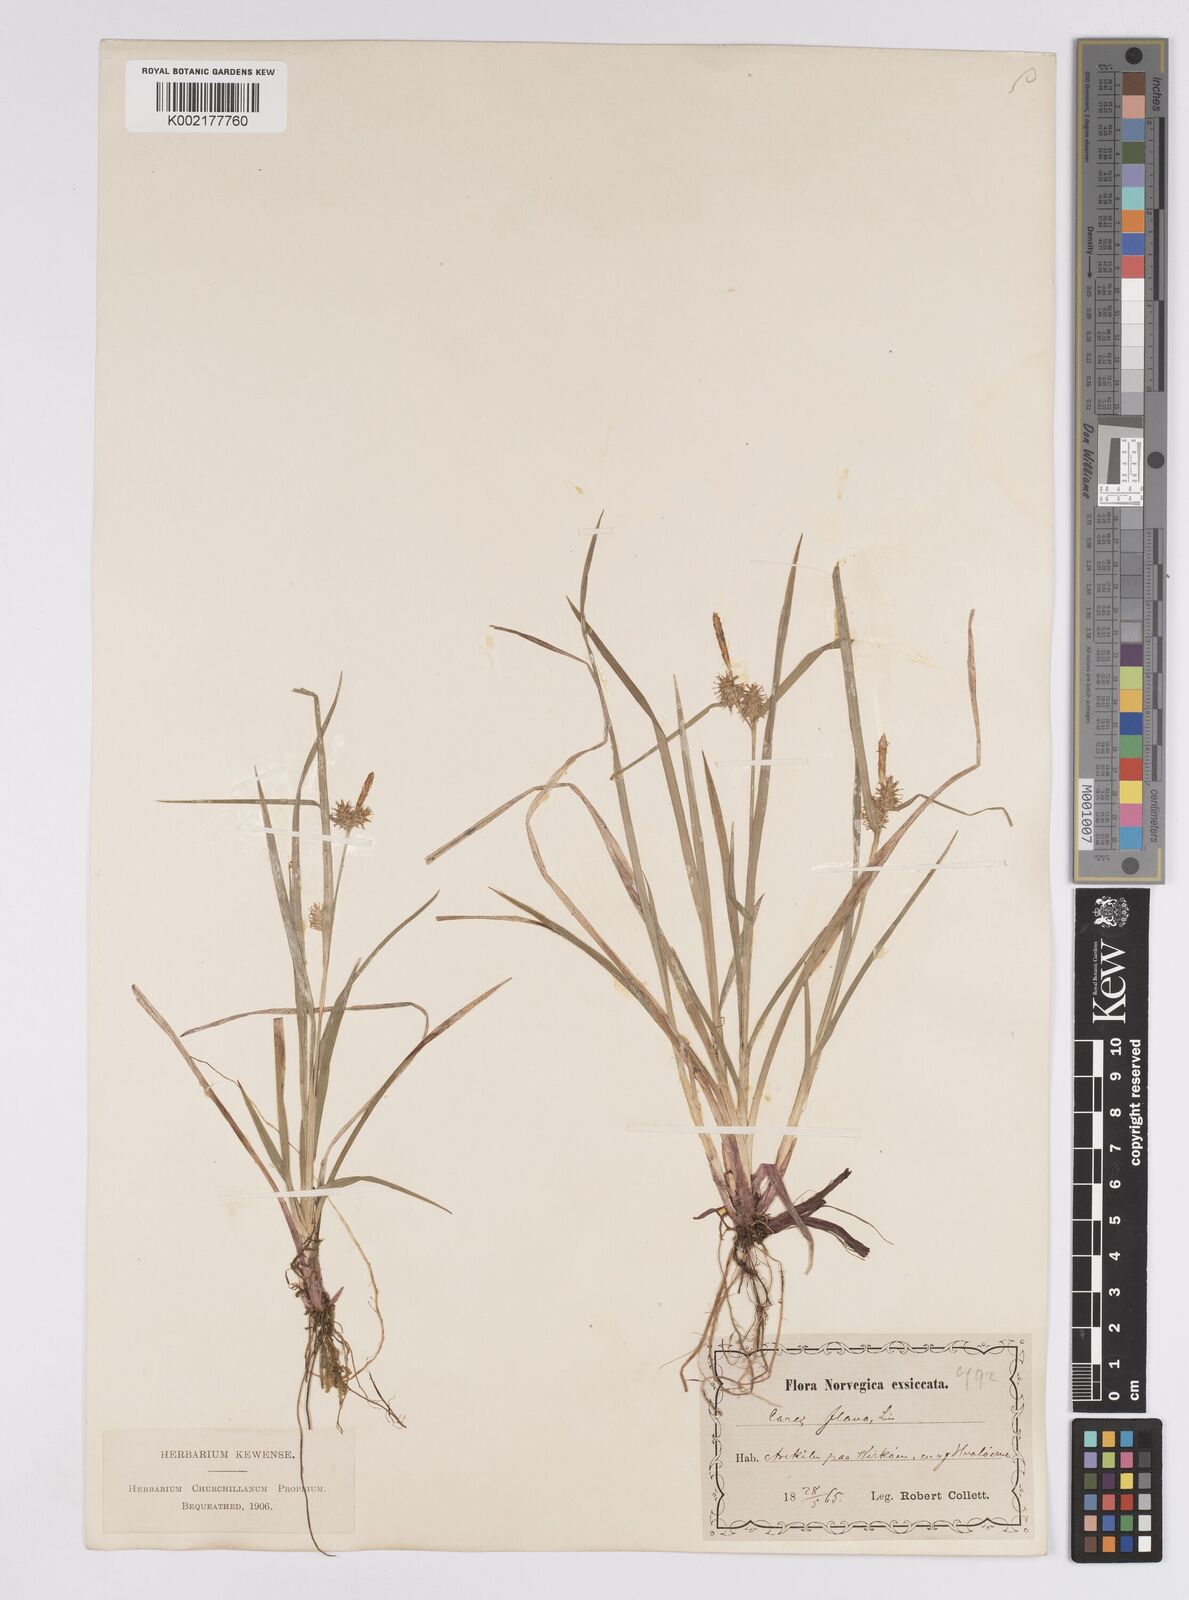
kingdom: Plantae
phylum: Tracheophyta
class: Liliopsida
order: Poales
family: Cyperaceae
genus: Carex
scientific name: Carex flava
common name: Large yellow-sedge
